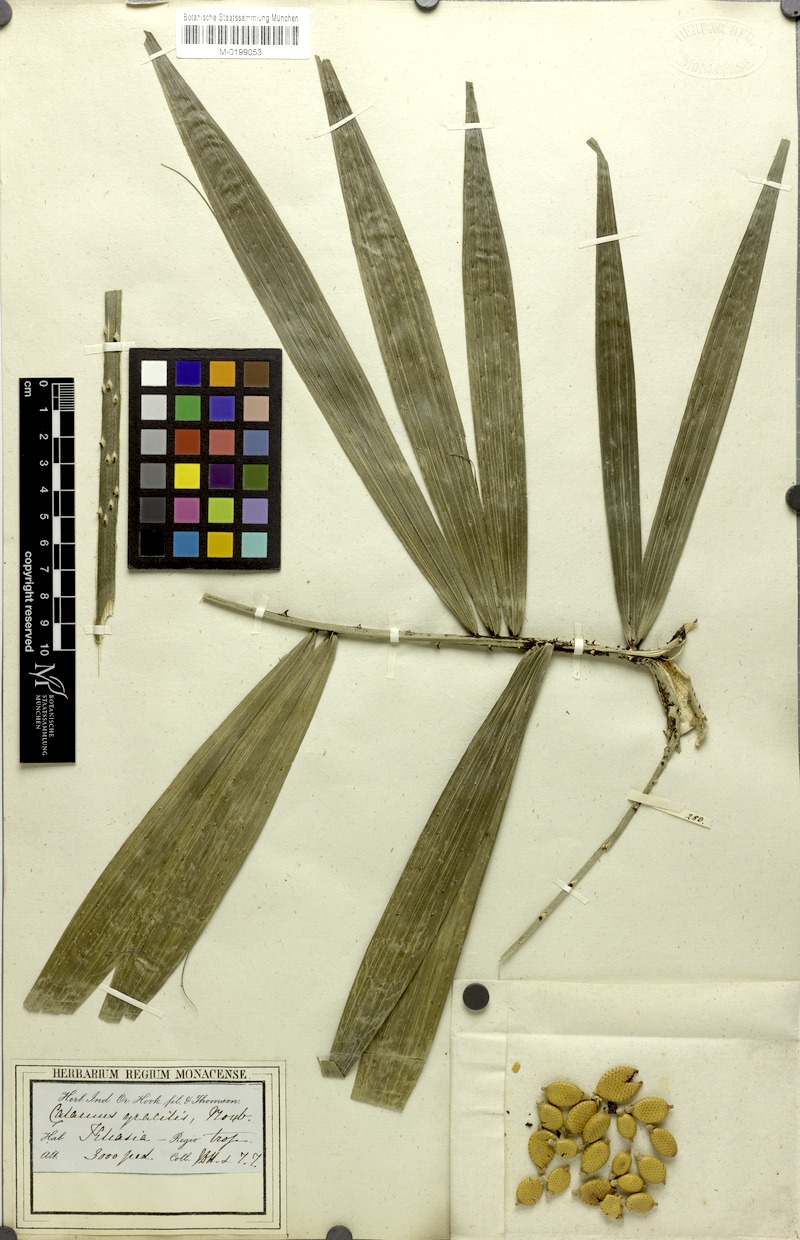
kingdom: Plantae
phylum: Tracheophyta
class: Liliopsida
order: Arecales
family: Arecaceae
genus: Calamus
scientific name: Calamus gracilis
